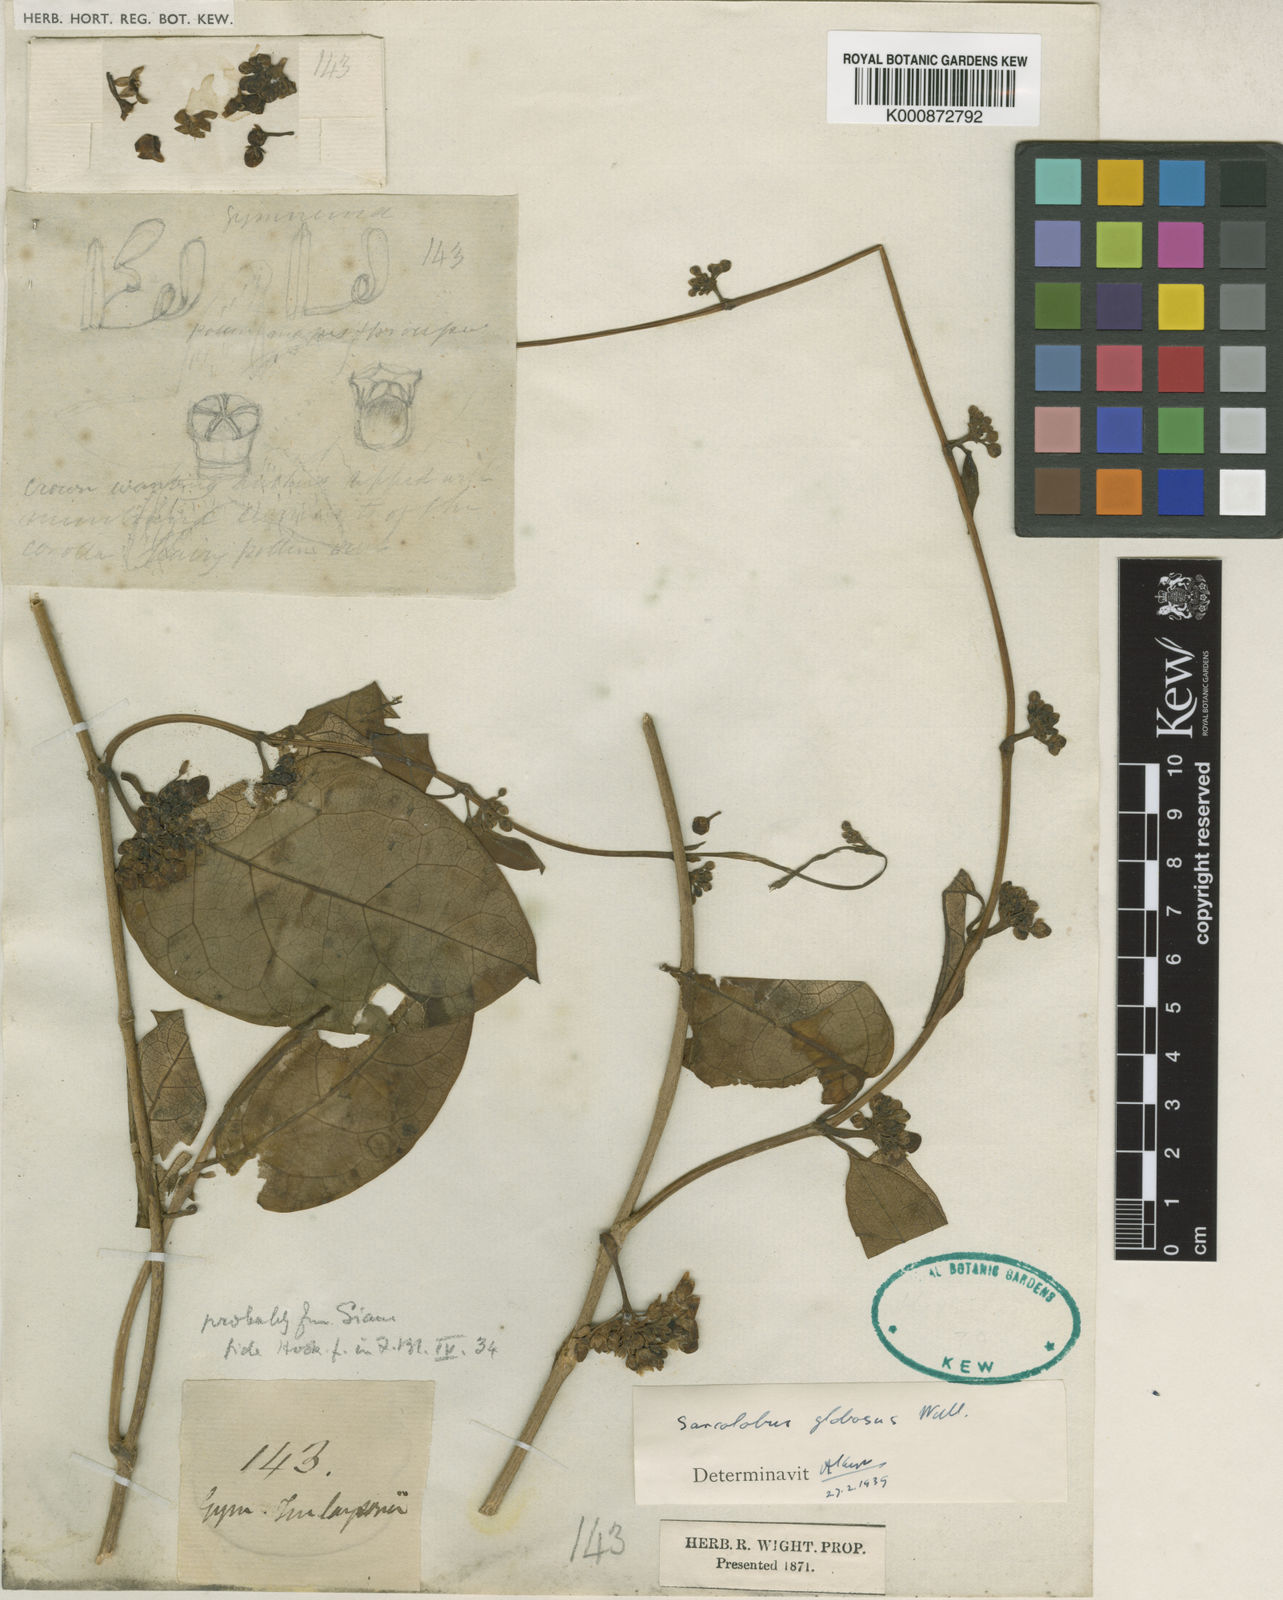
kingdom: Plantae
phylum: Tracheophyta
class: Magnoliopsida
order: Gentianales
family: Apocynaceae
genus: Sarcolobus
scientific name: Sarcolobus globosus
